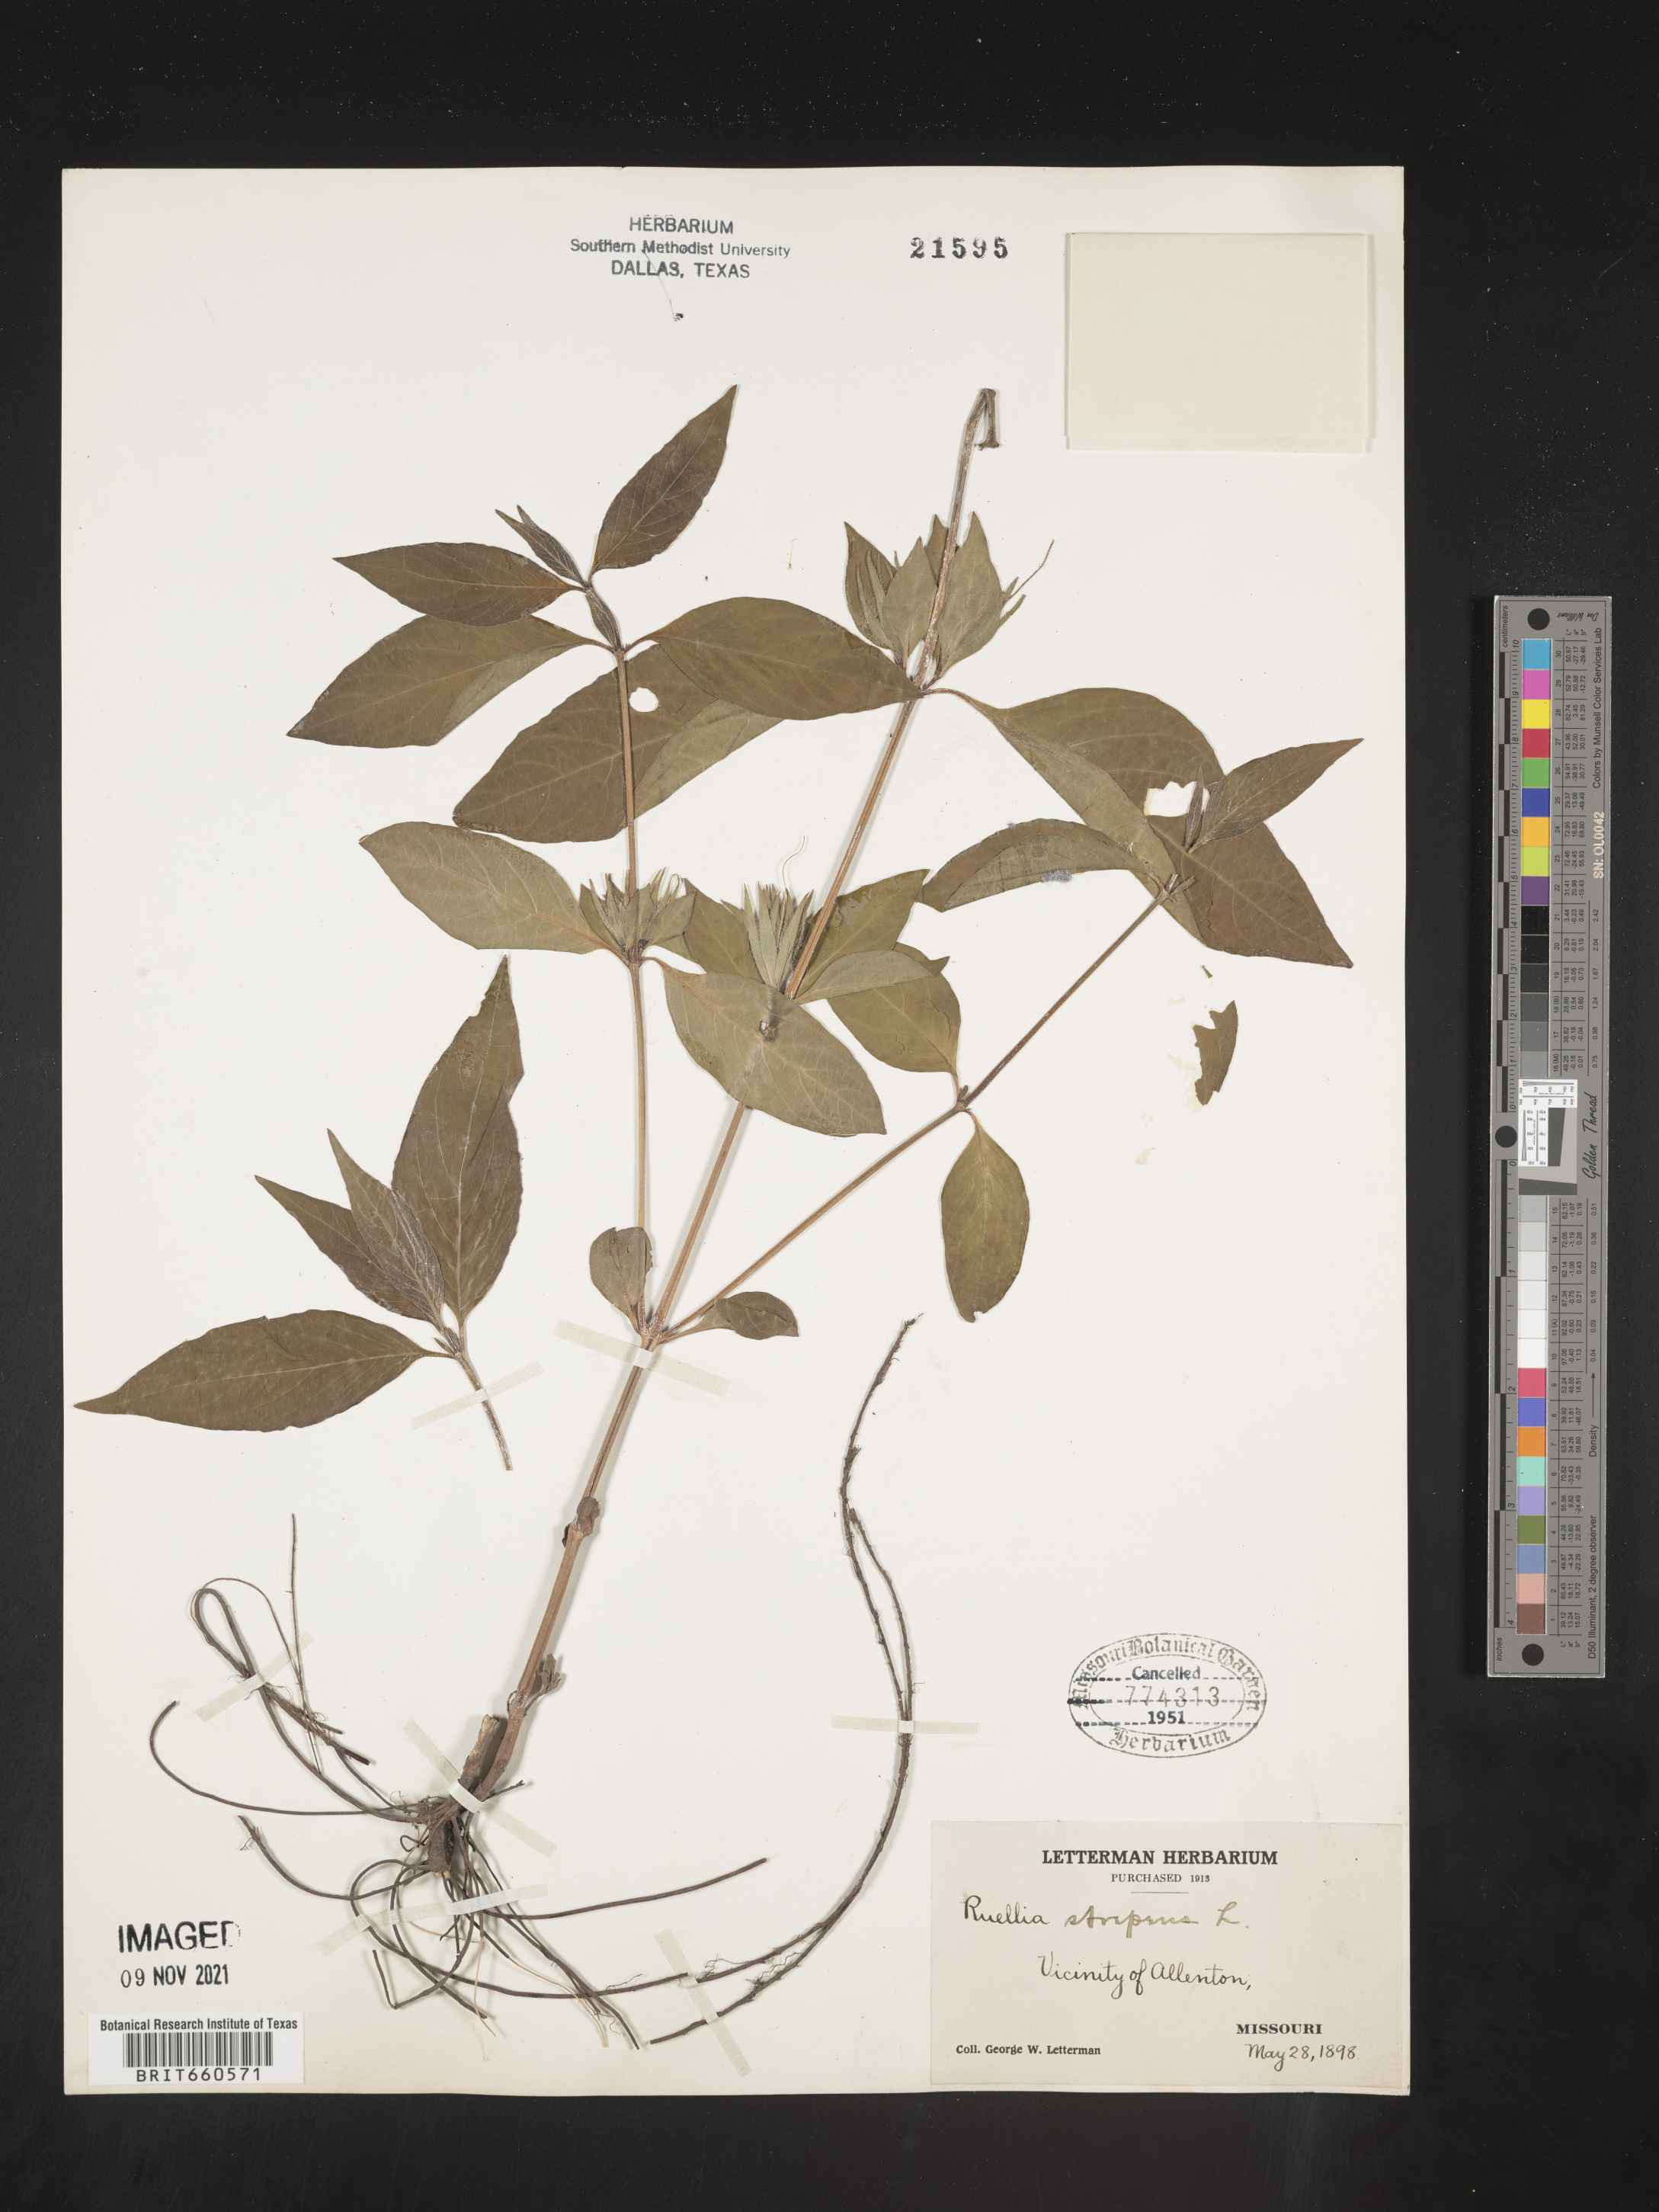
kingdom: Plantae
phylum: Tracheophyta
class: Magnoliopsida
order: Lamiales
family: Acanthaceae
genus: Ruellia
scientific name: Ruellia strepens
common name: Limestone wild petunia
